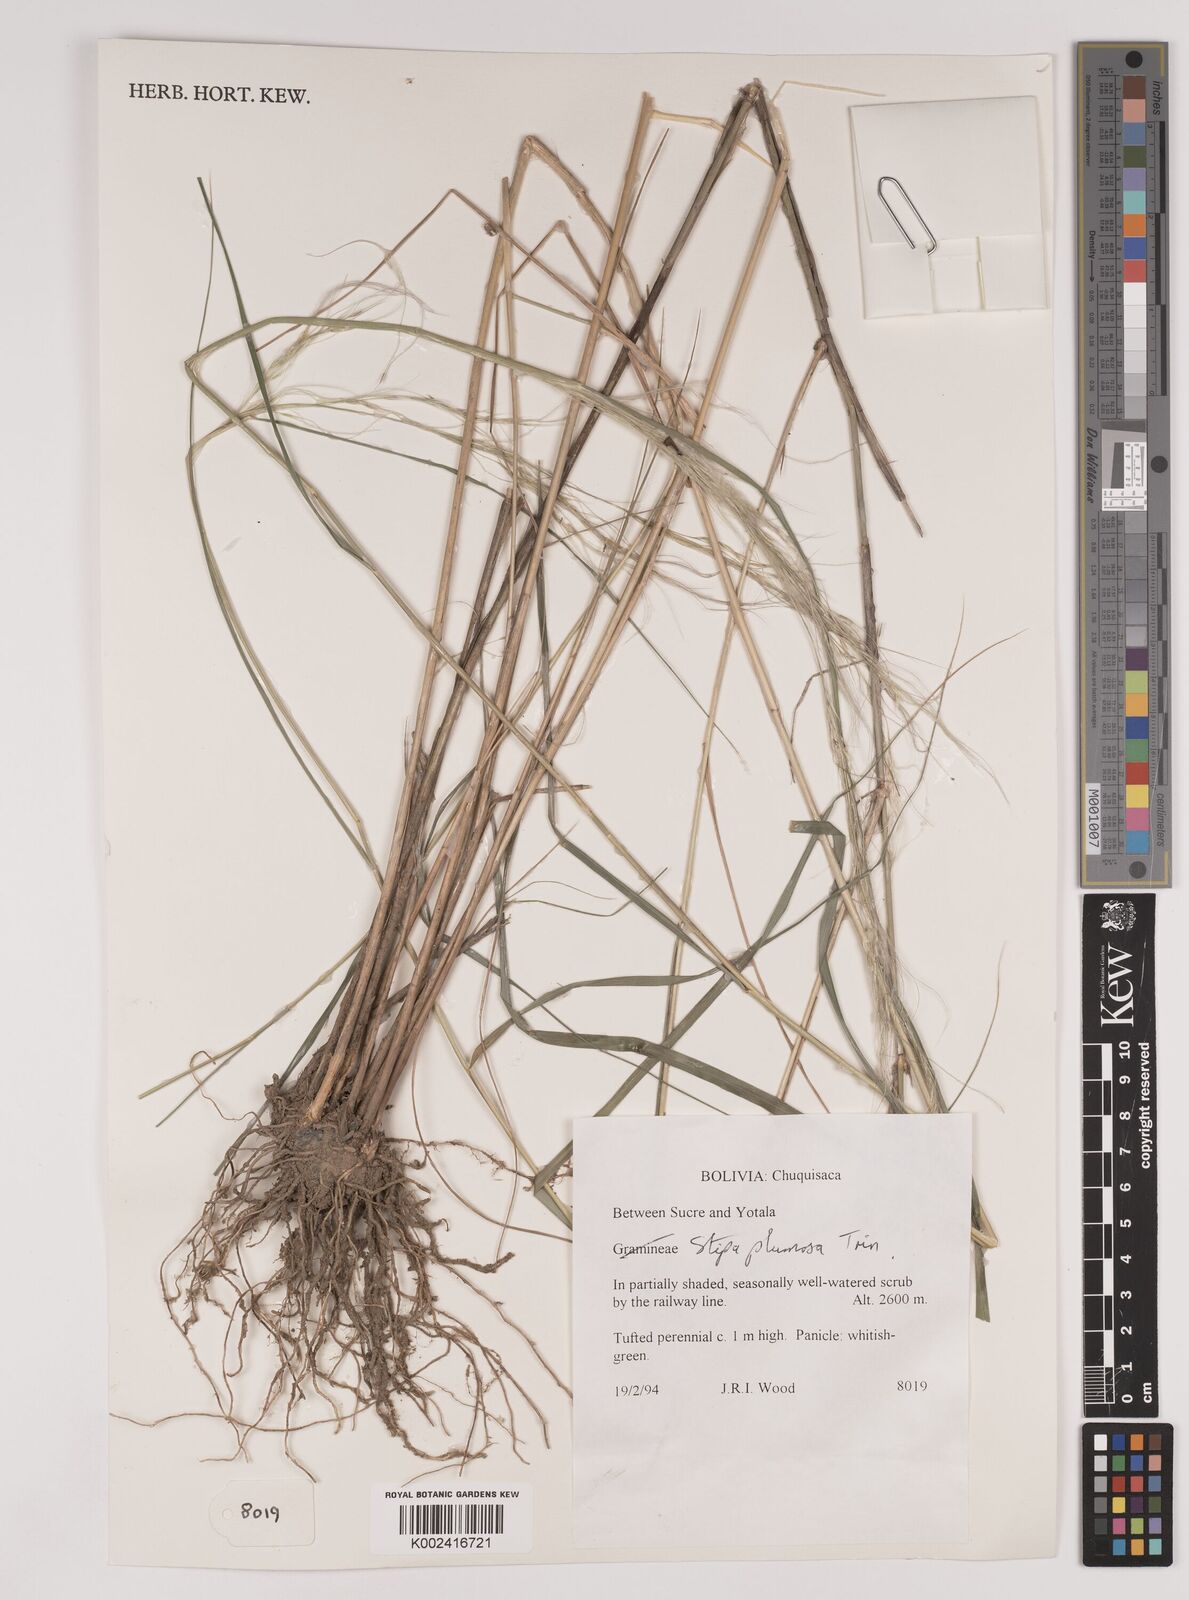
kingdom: Plantae
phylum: Tracheophyta
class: Liliopsida
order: Poales
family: Poaceae
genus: Stipa
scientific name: Stipa plumosa
